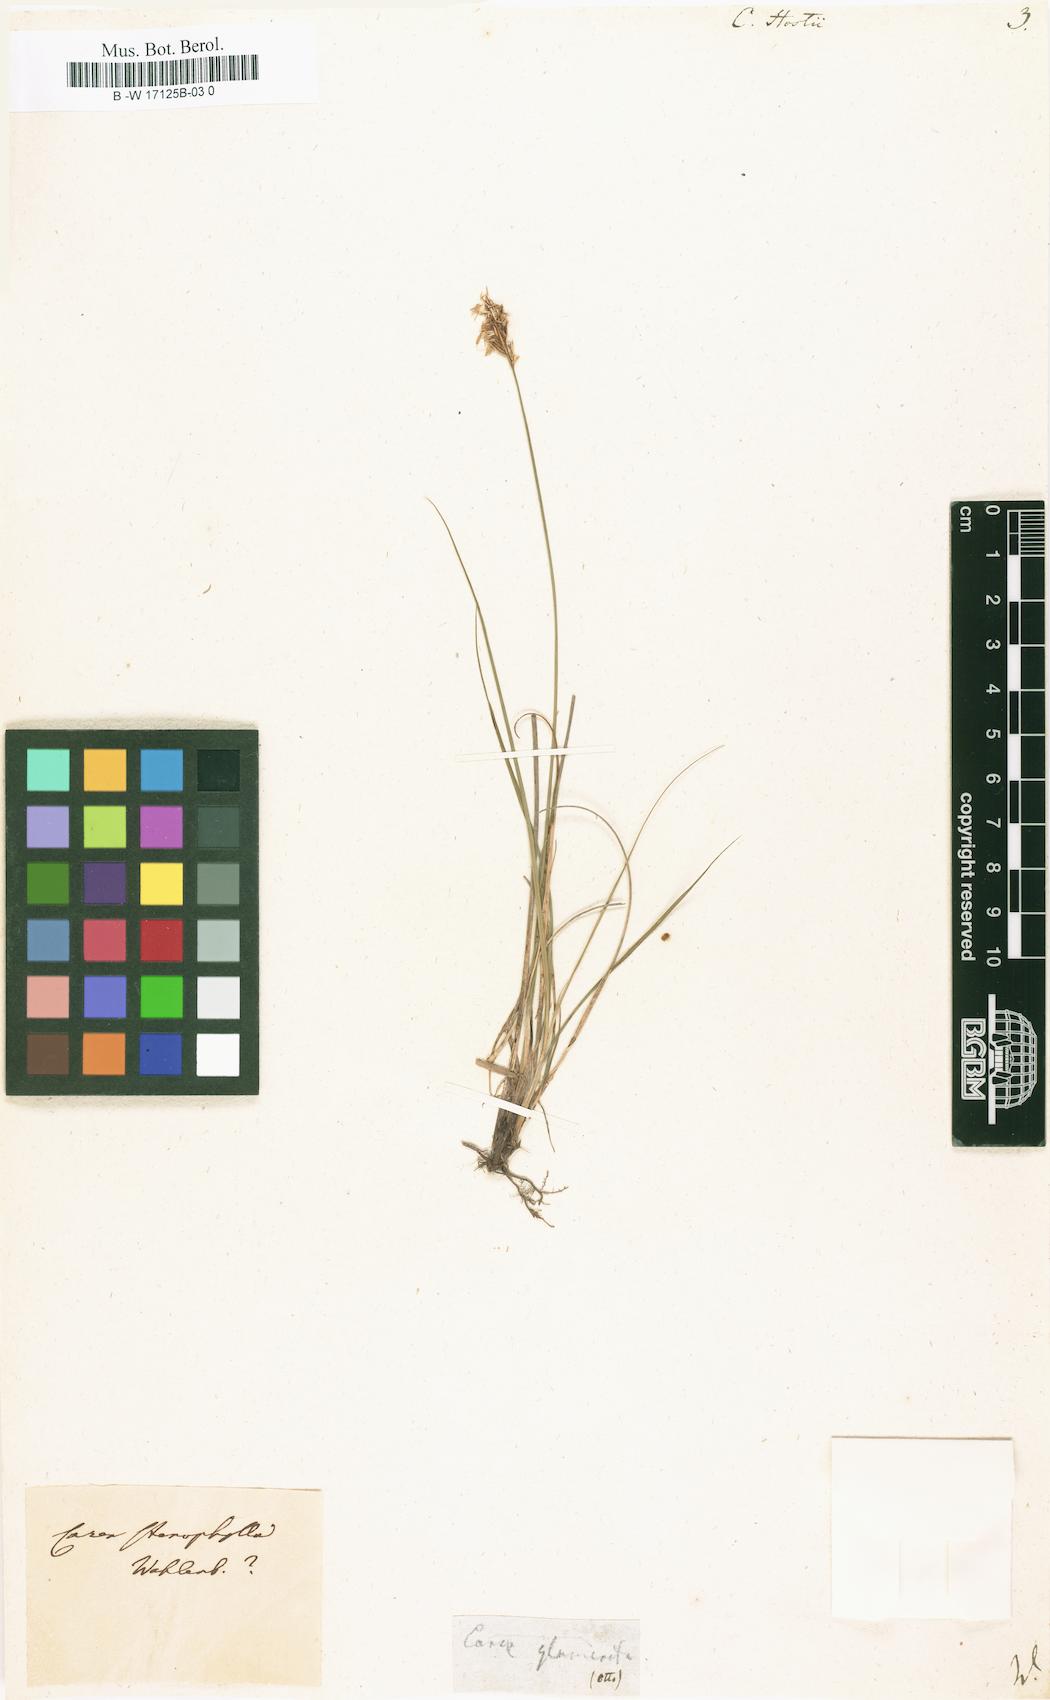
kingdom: Plantae
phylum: Tracheophyta
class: Liliopsida
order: Poales
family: Cyperaceae
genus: Carex
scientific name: Carex
